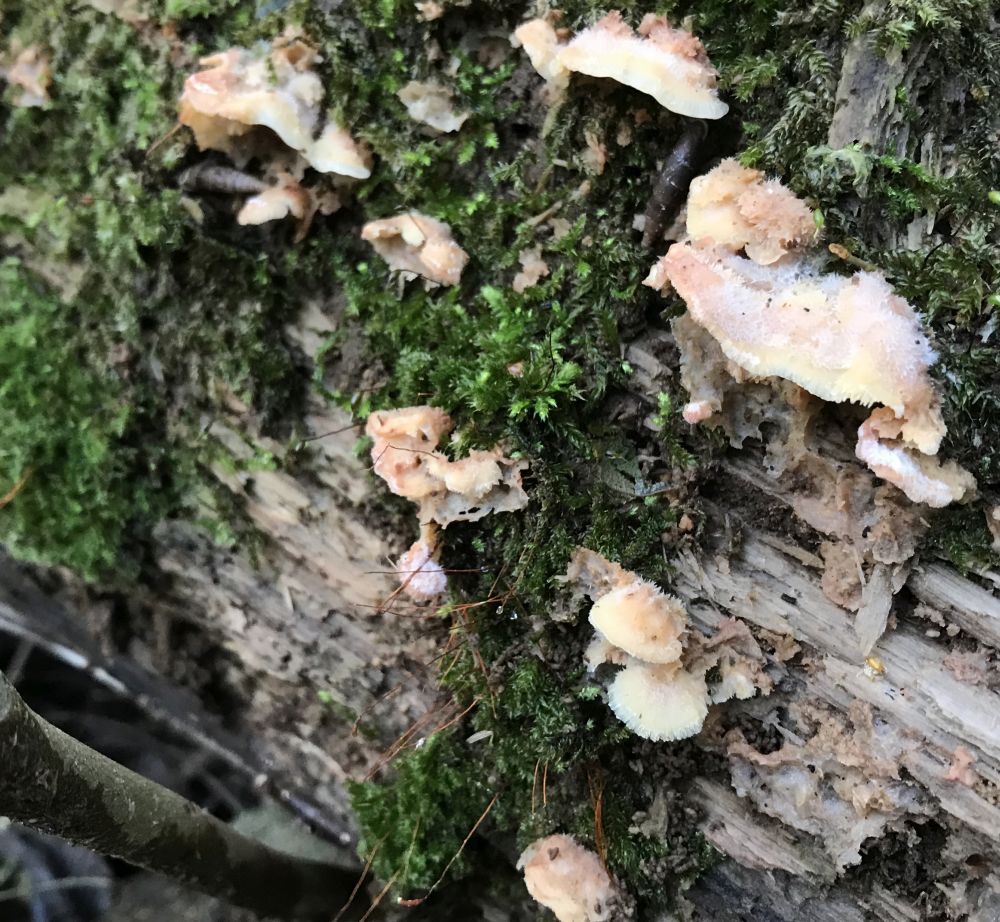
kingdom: Fungi
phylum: Basidiomycota
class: Agaricomycetes
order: Polyporales
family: Meruliaceae
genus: Phlebia
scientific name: Phlebia tremellosa
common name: bævrende åresvamp
